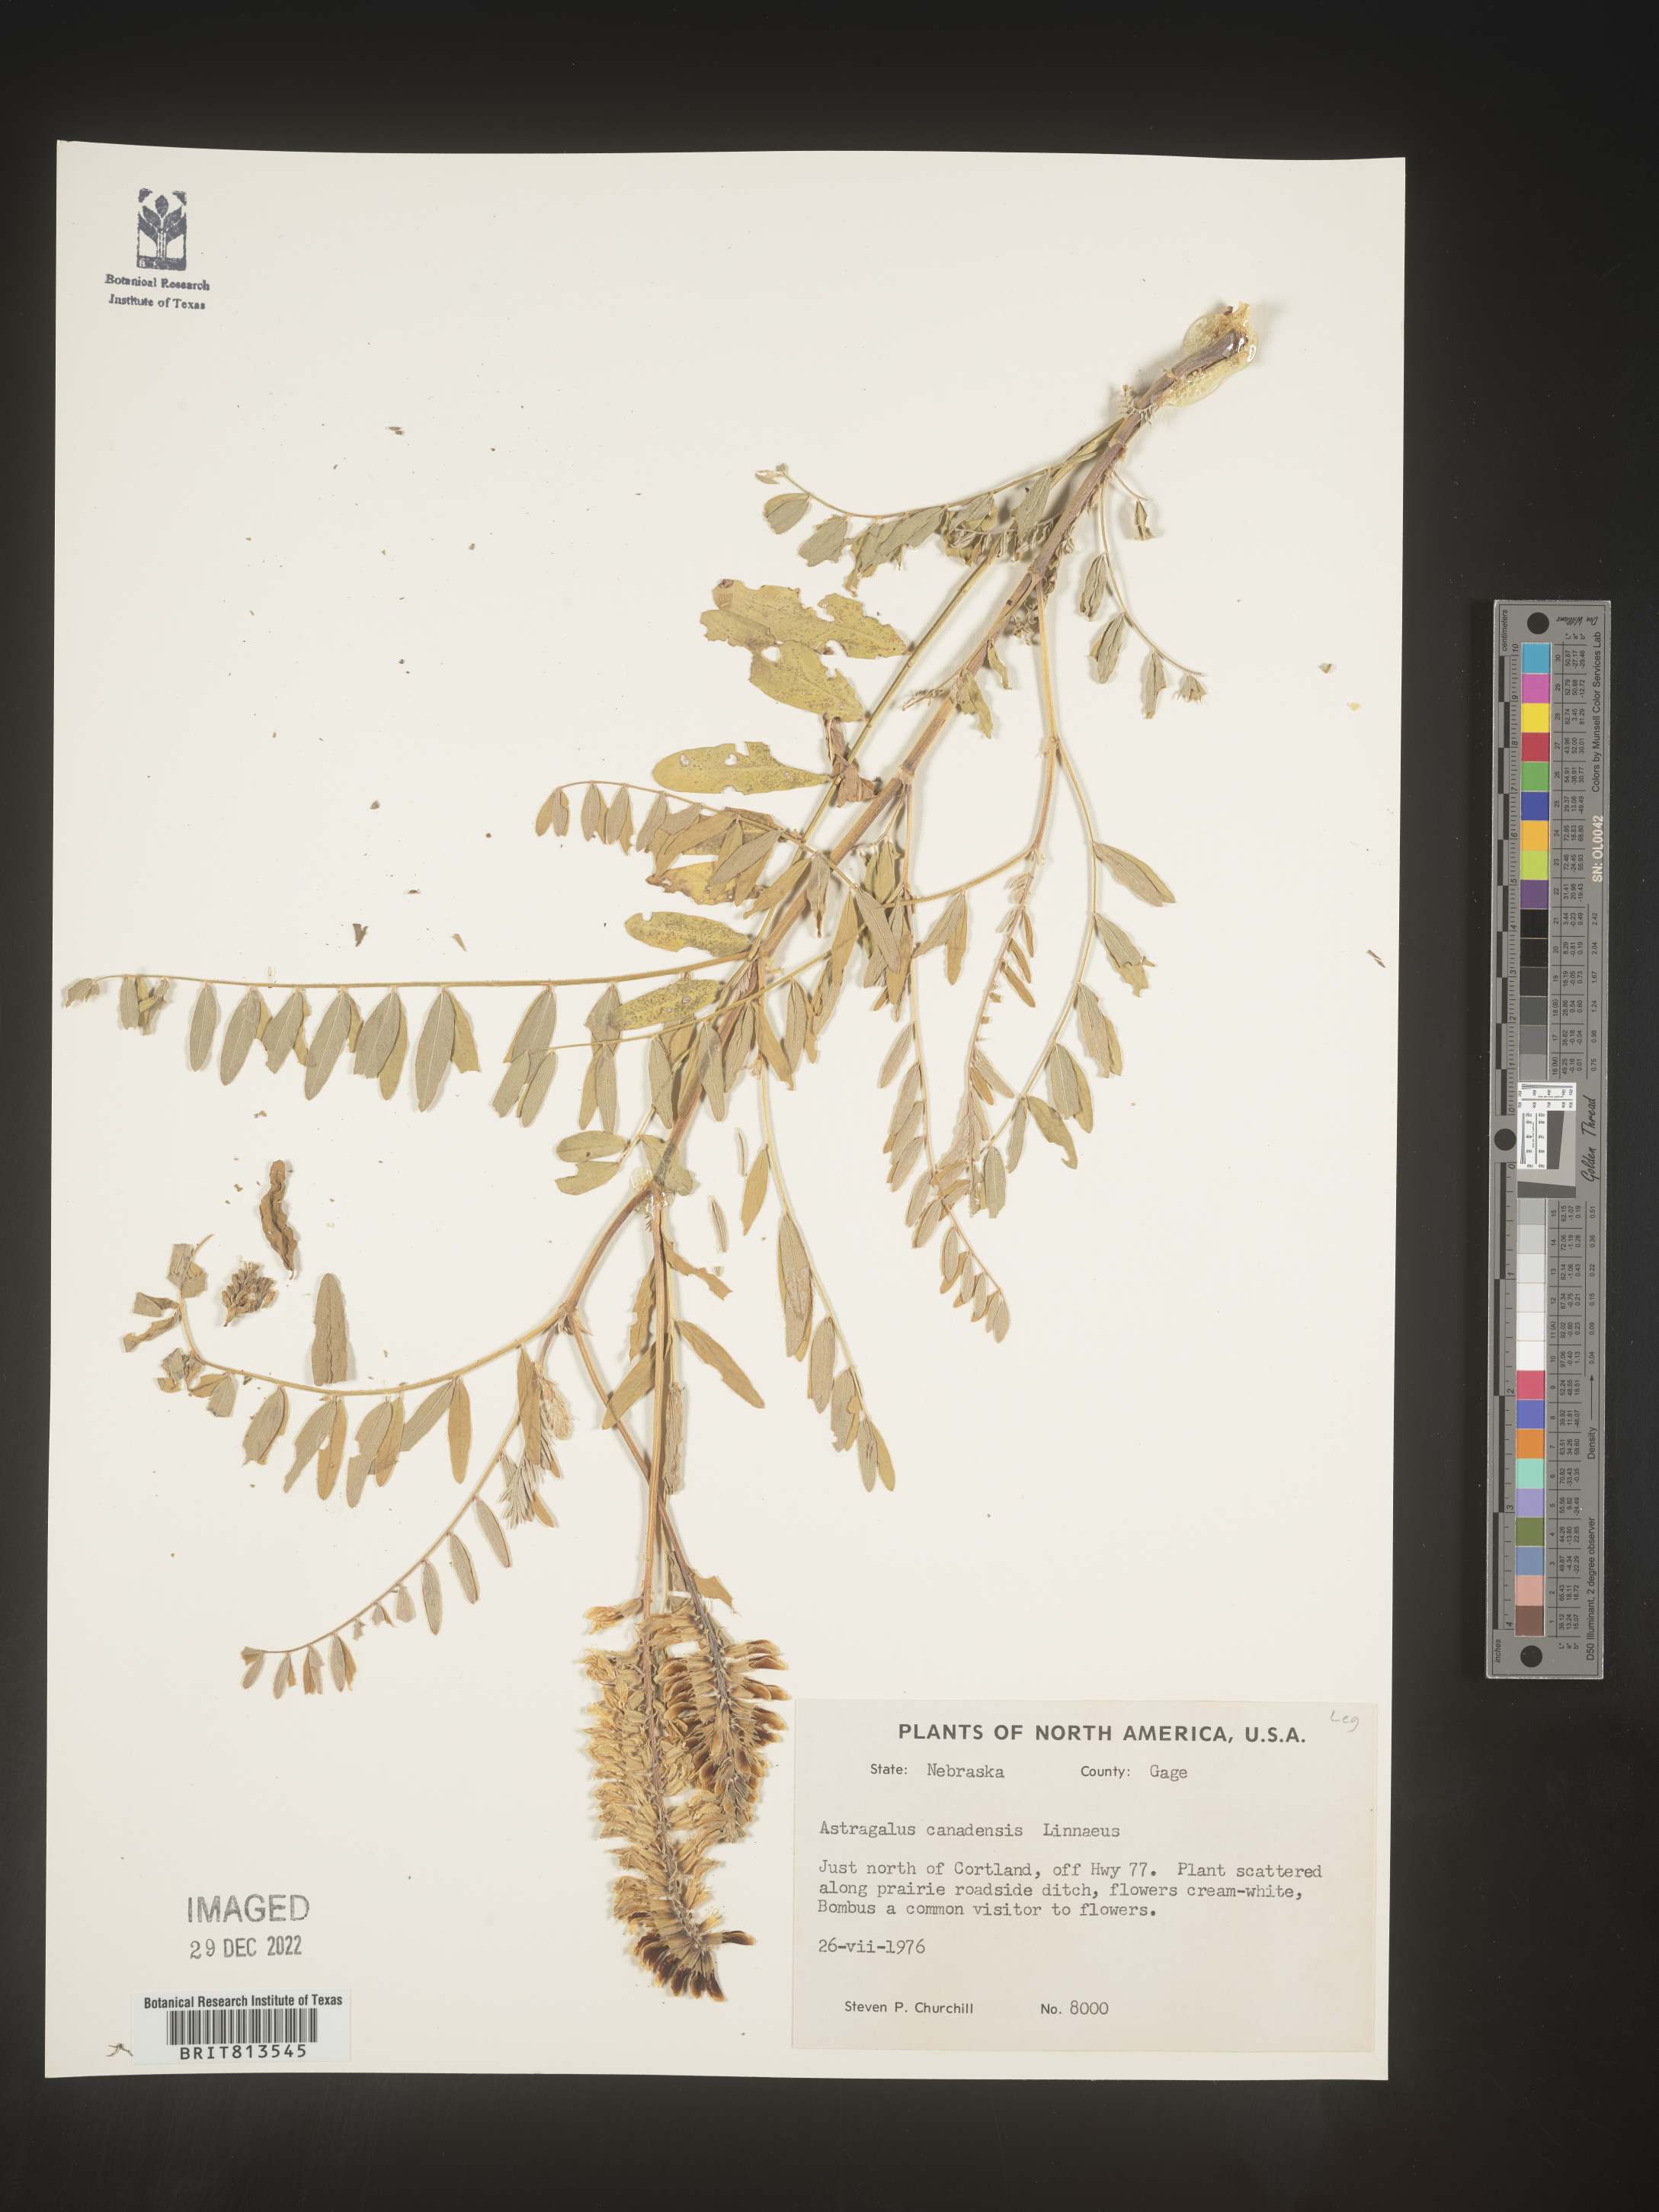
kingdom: Plantae
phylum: Tracheophyta
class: Magnoliopsida
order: Fabales
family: Fabaceae
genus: Astragalus
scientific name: Astragalus canadensis
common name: Canada milk-vetch
